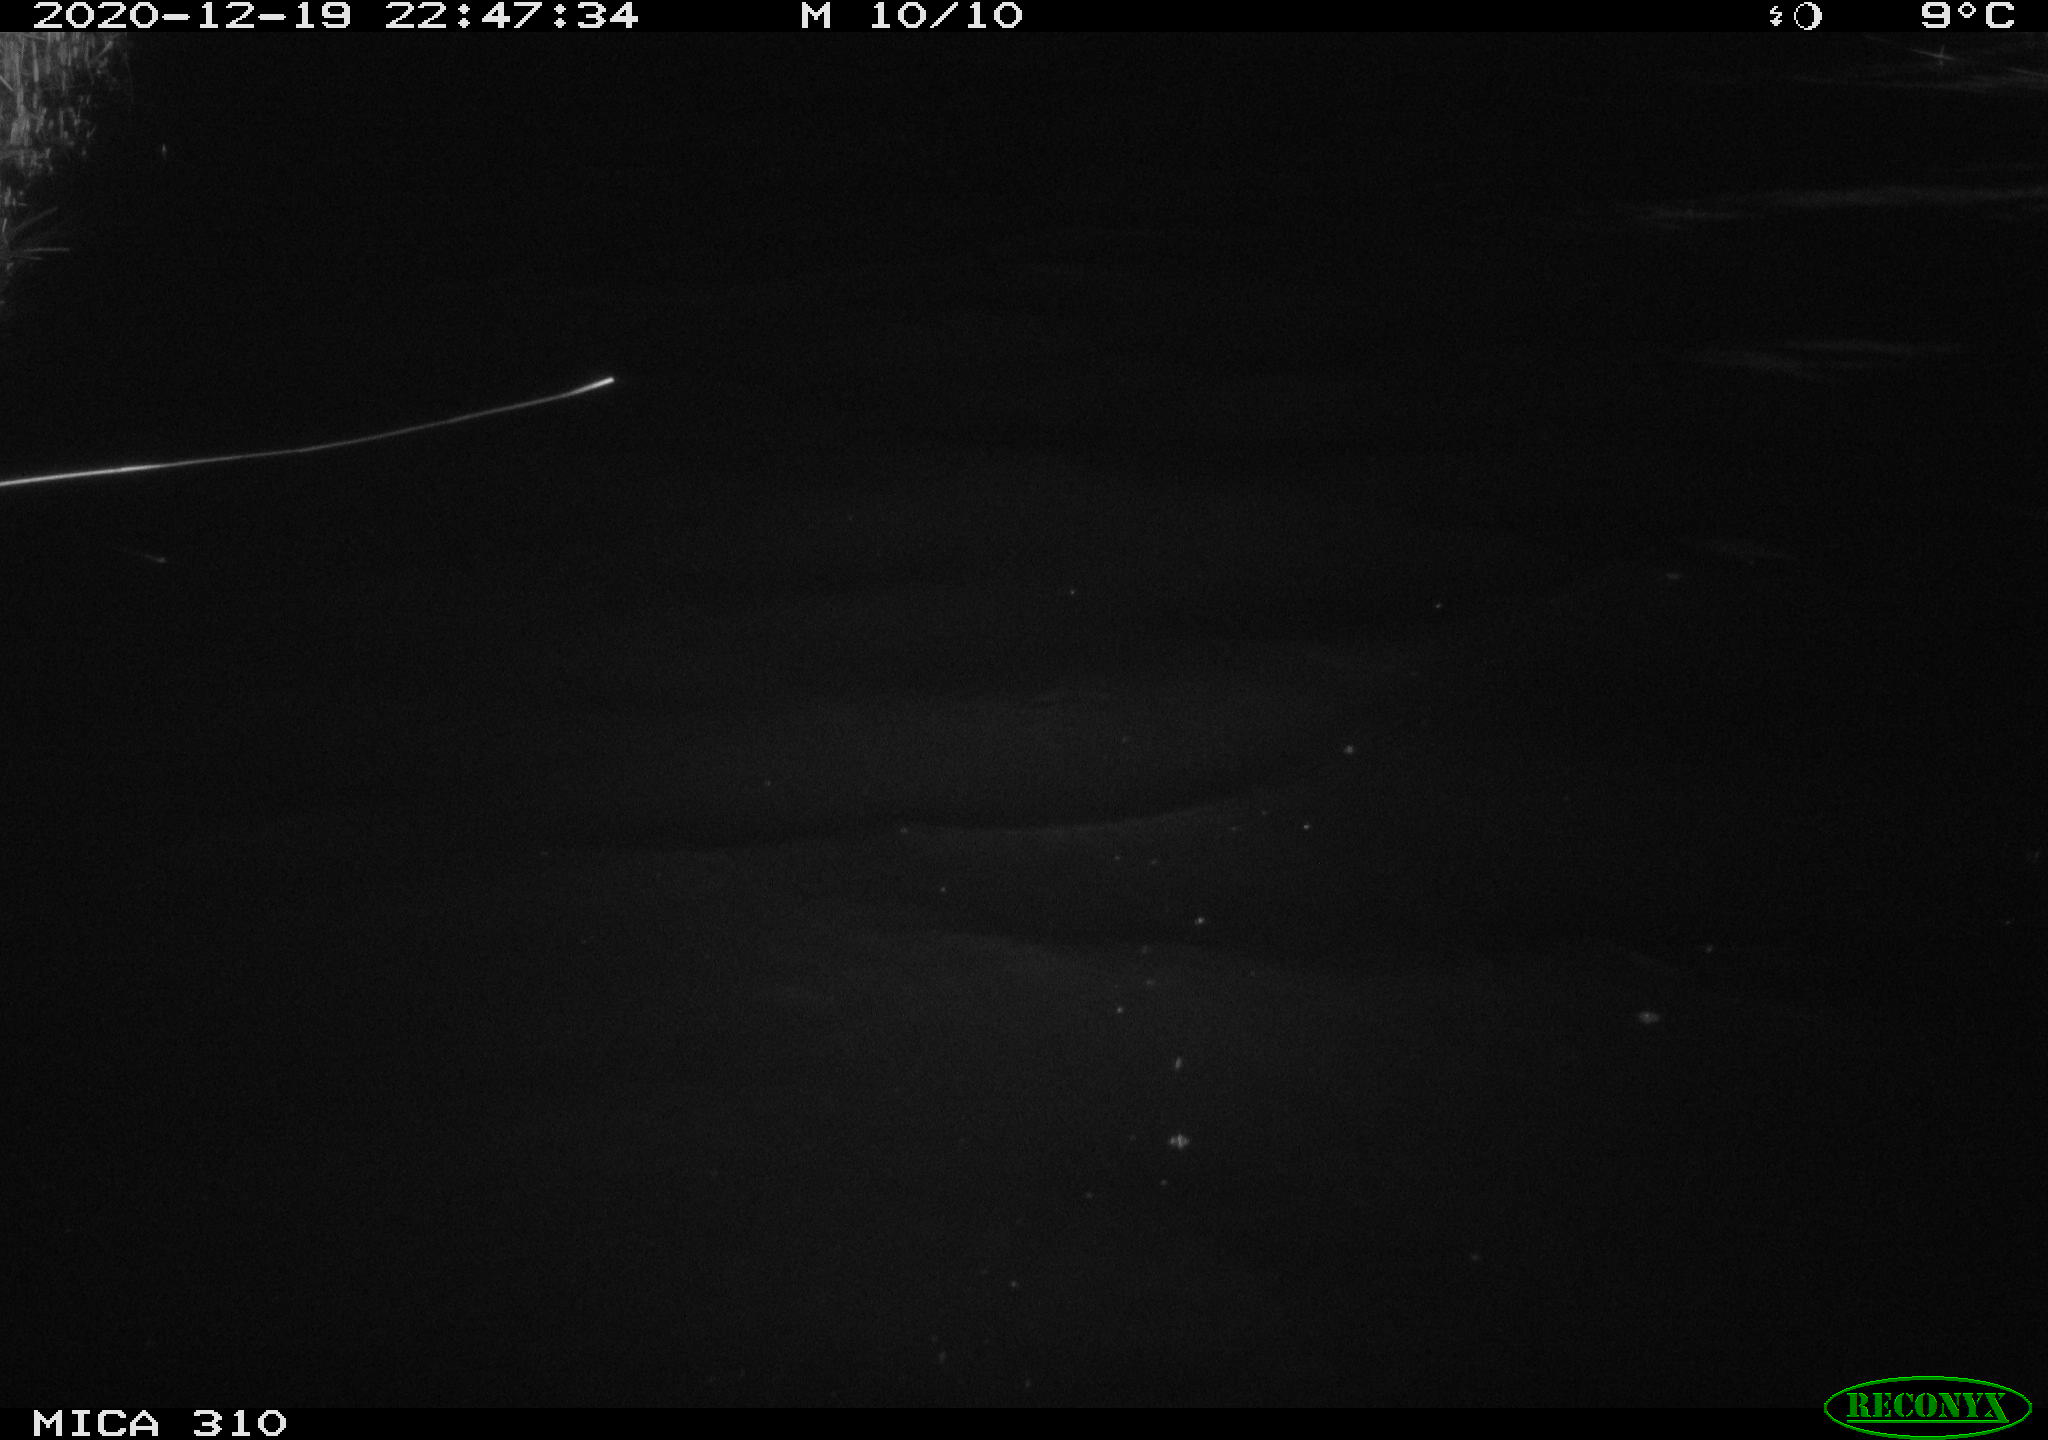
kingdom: Animalia
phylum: Chordata
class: Mammalia
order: Rodentia
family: Muridae
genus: Rattus
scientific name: Rattus norvegicus
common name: Brown rat
